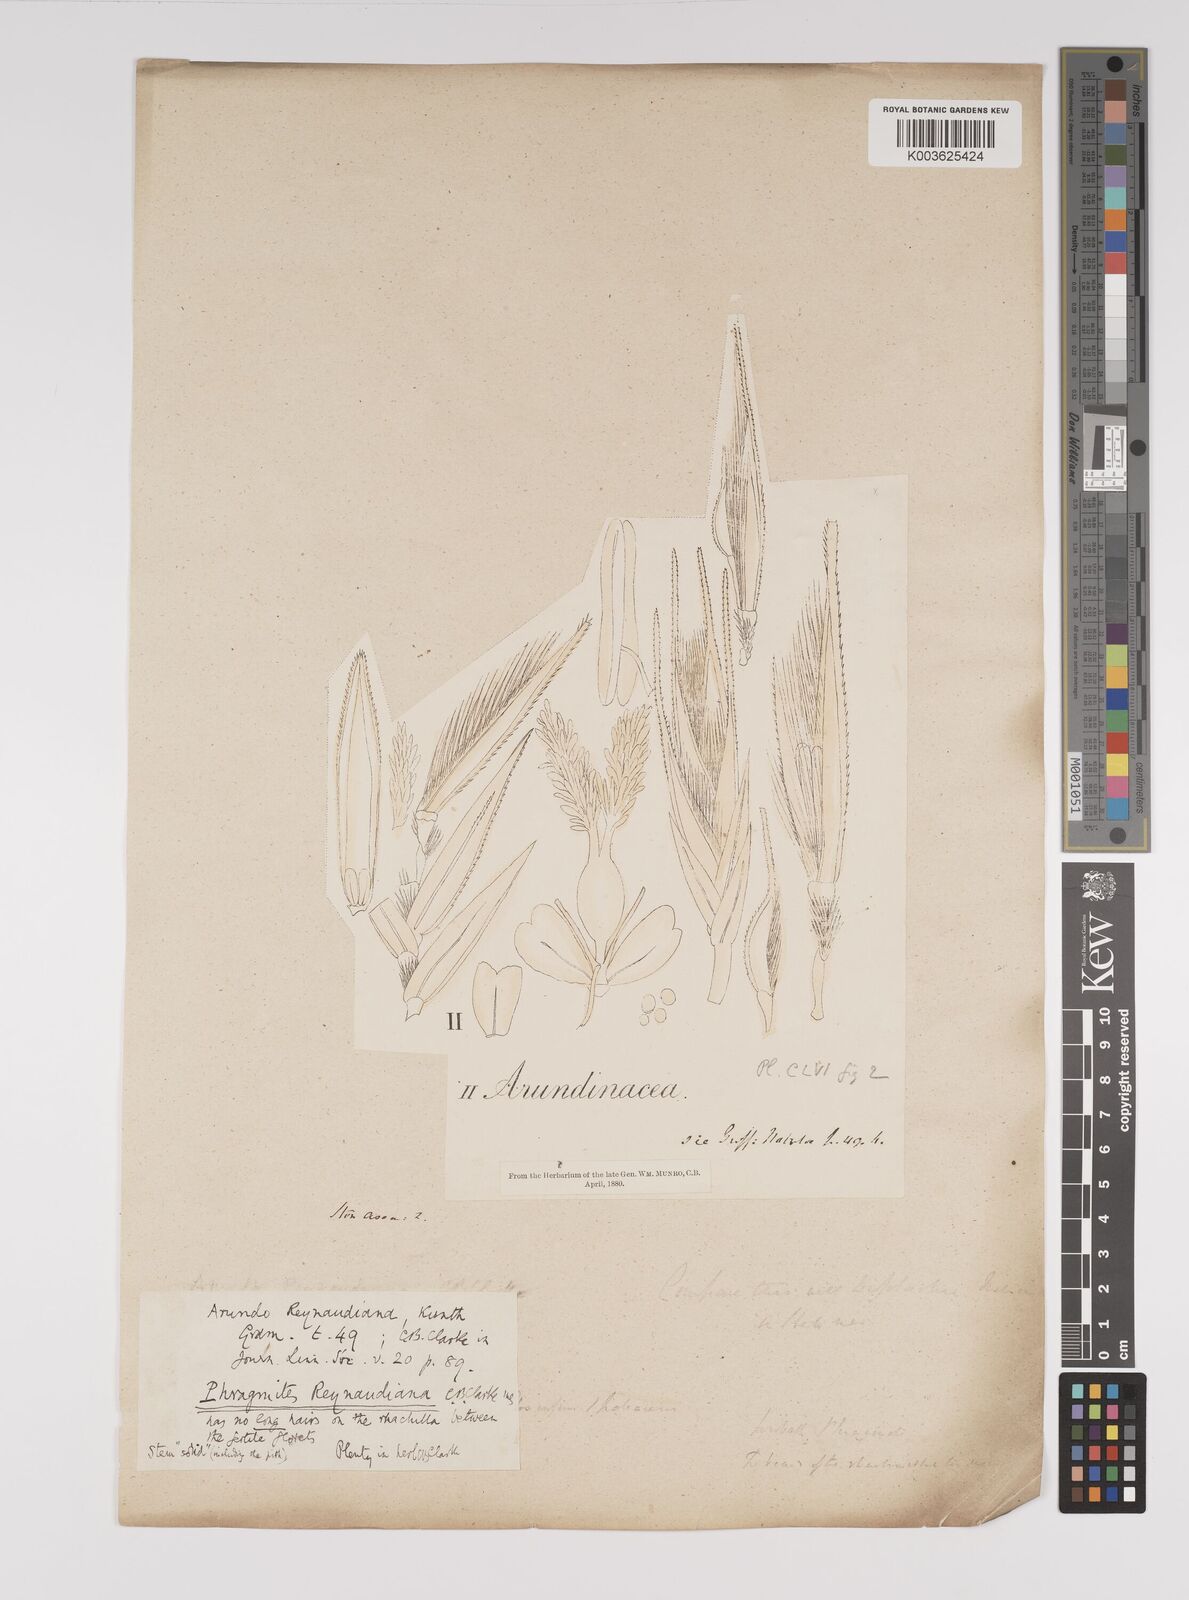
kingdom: Plantae
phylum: Tracheophyta
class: Liliopsida
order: Poales
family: Poaceae
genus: Neyraudia
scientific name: Neyraudia reynaudiana
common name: Silkreed
